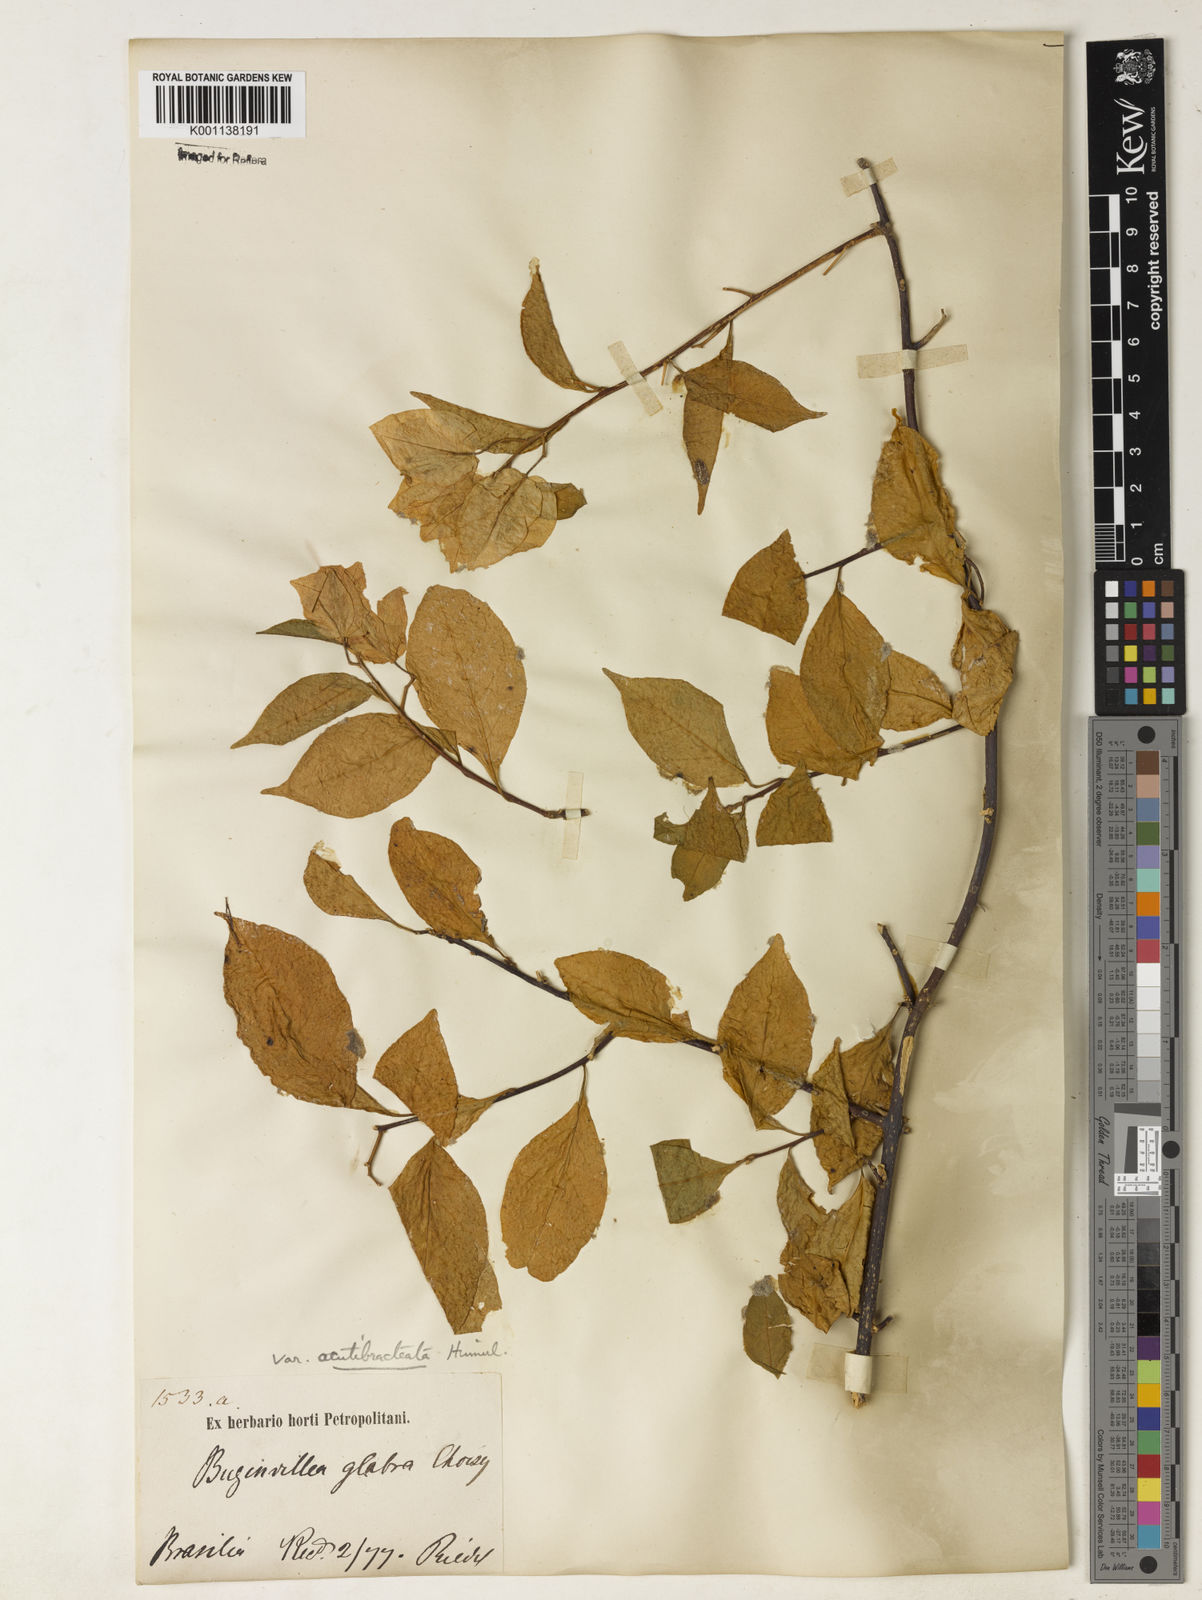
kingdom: Plantae
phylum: Tracheophyta
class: Magnoliopsida
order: Caryophyllales
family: Nyctaginaceae
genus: Bougainvillea
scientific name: Bougainvillea glabra
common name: Paperflower
